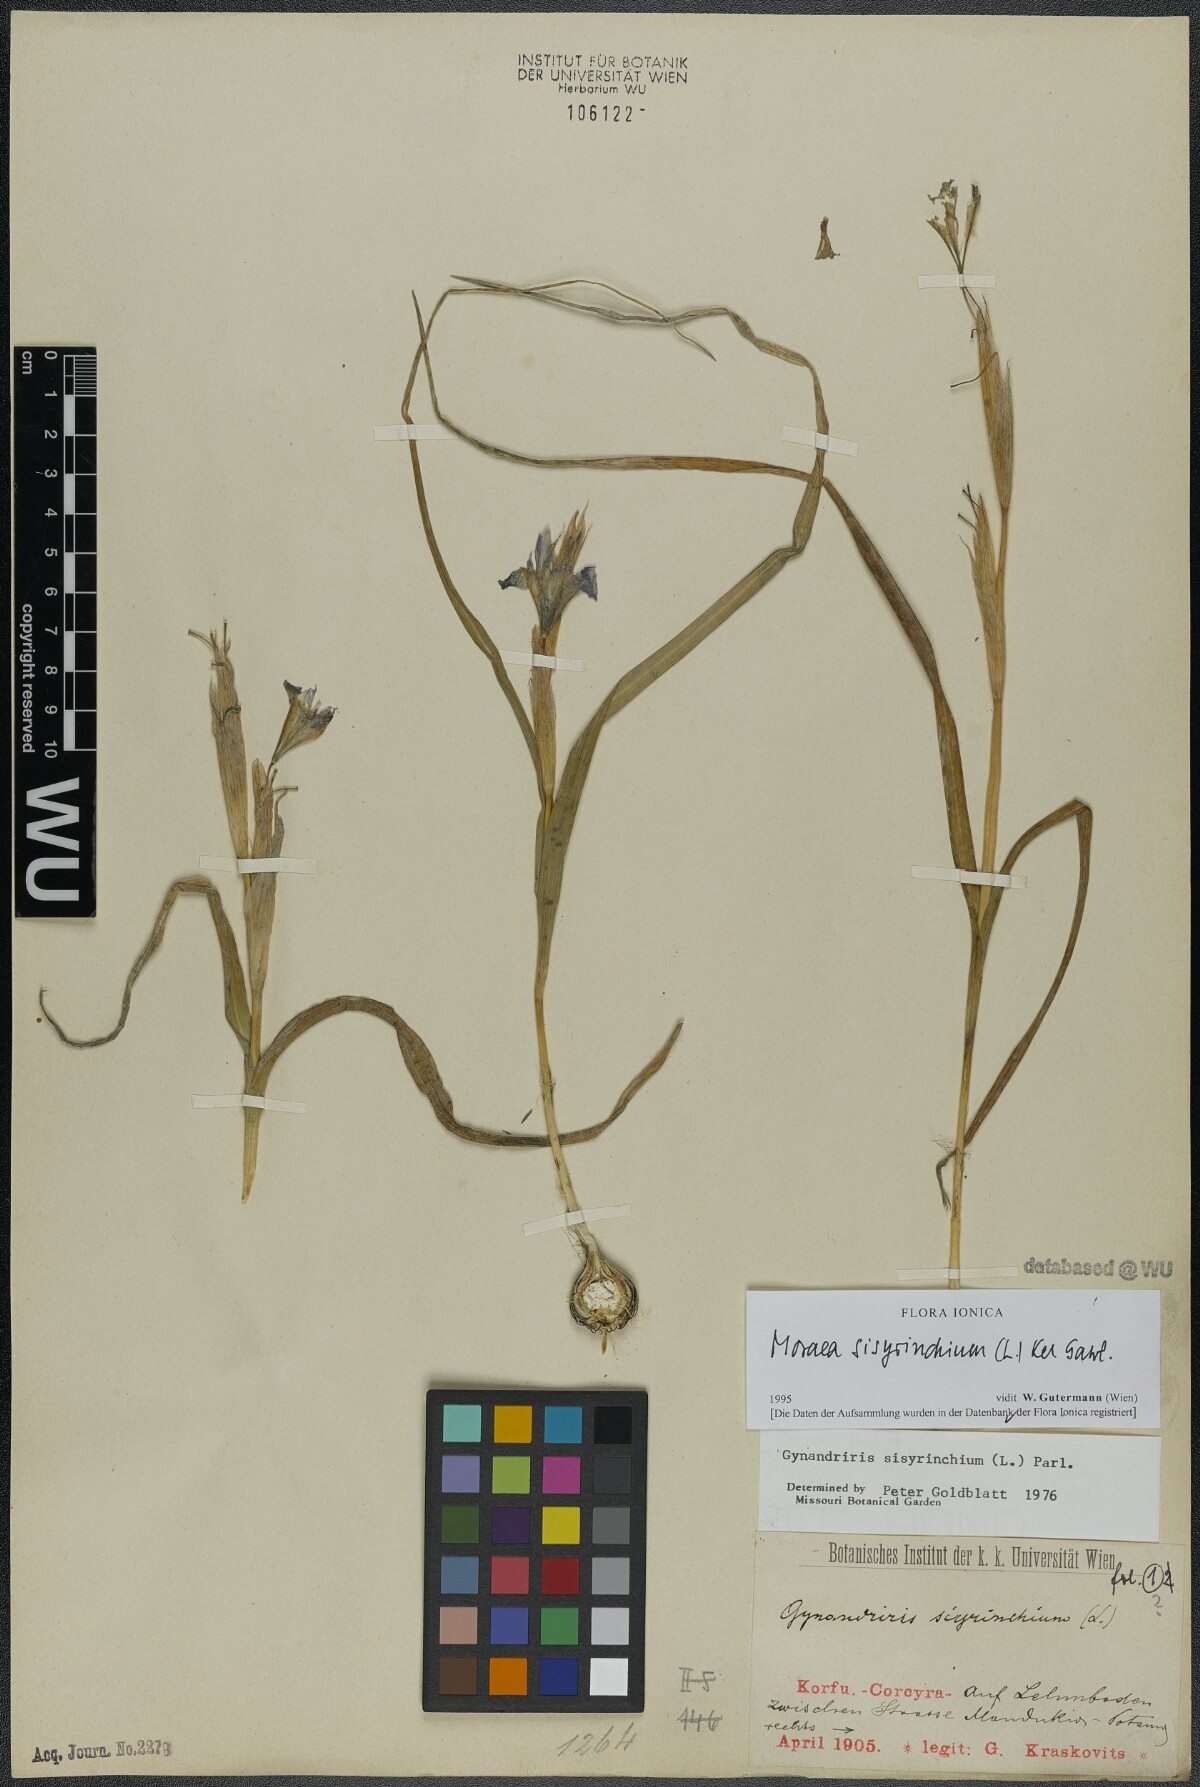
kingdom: Plantae
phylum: Tracheophyta
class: Liliopsida
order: Asparagales
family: Iridaceae
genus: Moraea
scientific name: Moraea sisyrinchium
